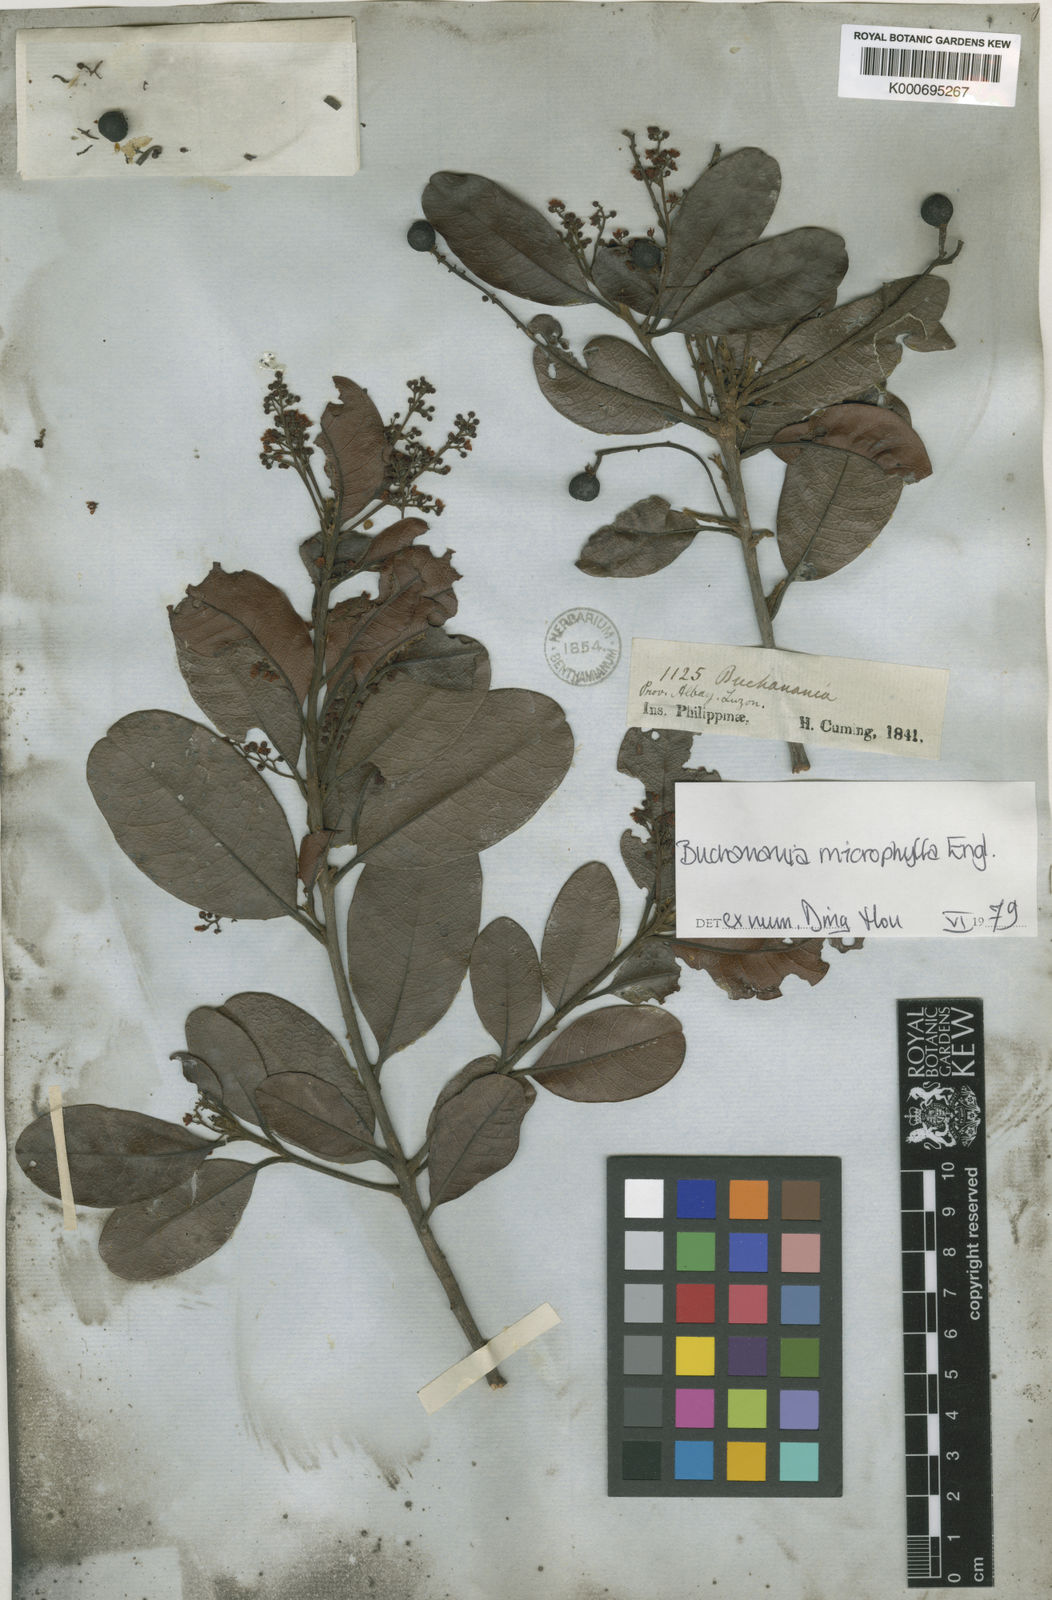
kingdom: Plantae
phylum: Tracheophyta
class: Magnoliopsida
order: Sapindales
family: Anacardiaceae
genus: Buchanania
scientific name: Buchanania microphylla
